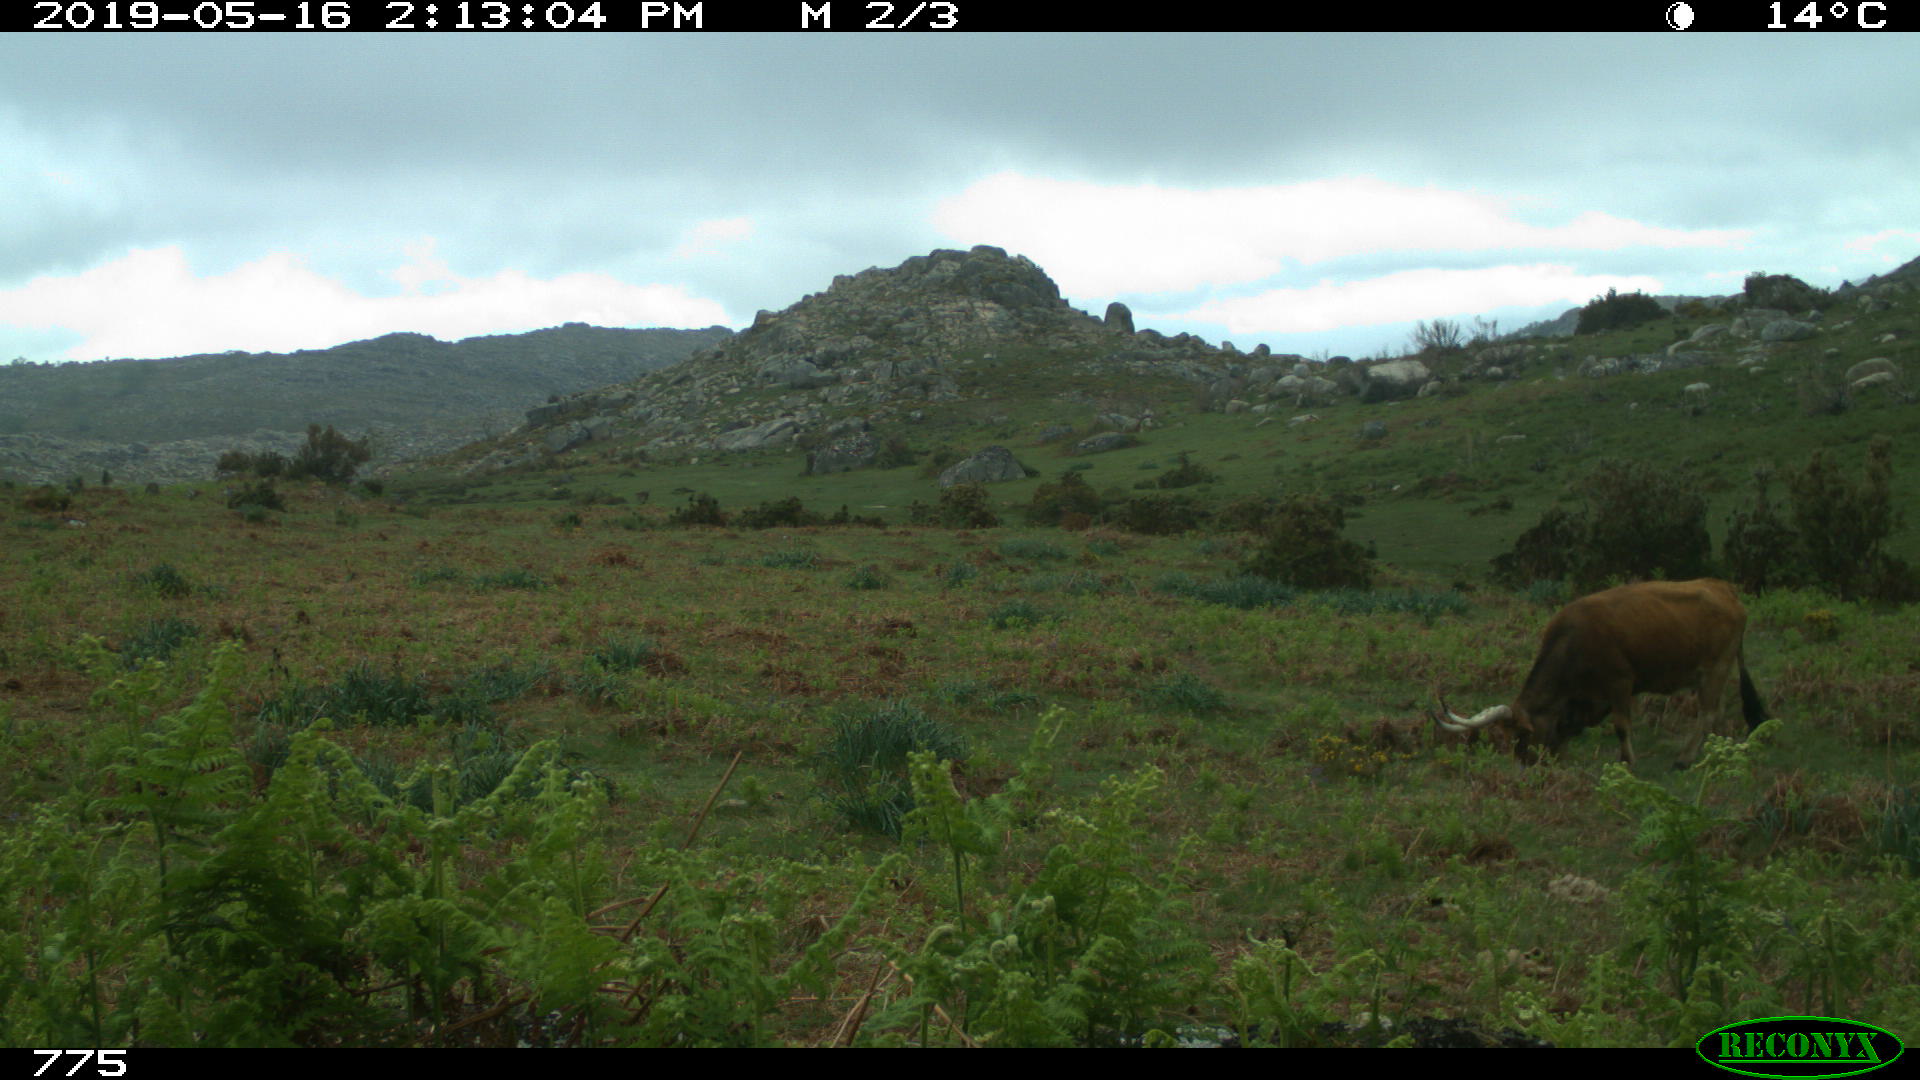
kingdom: Animalia
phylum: Chordata
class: Mammalia
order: Artiodactyla
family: Bovidae
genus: Bos
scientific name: Bos taurus
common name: Domesticated cattle
